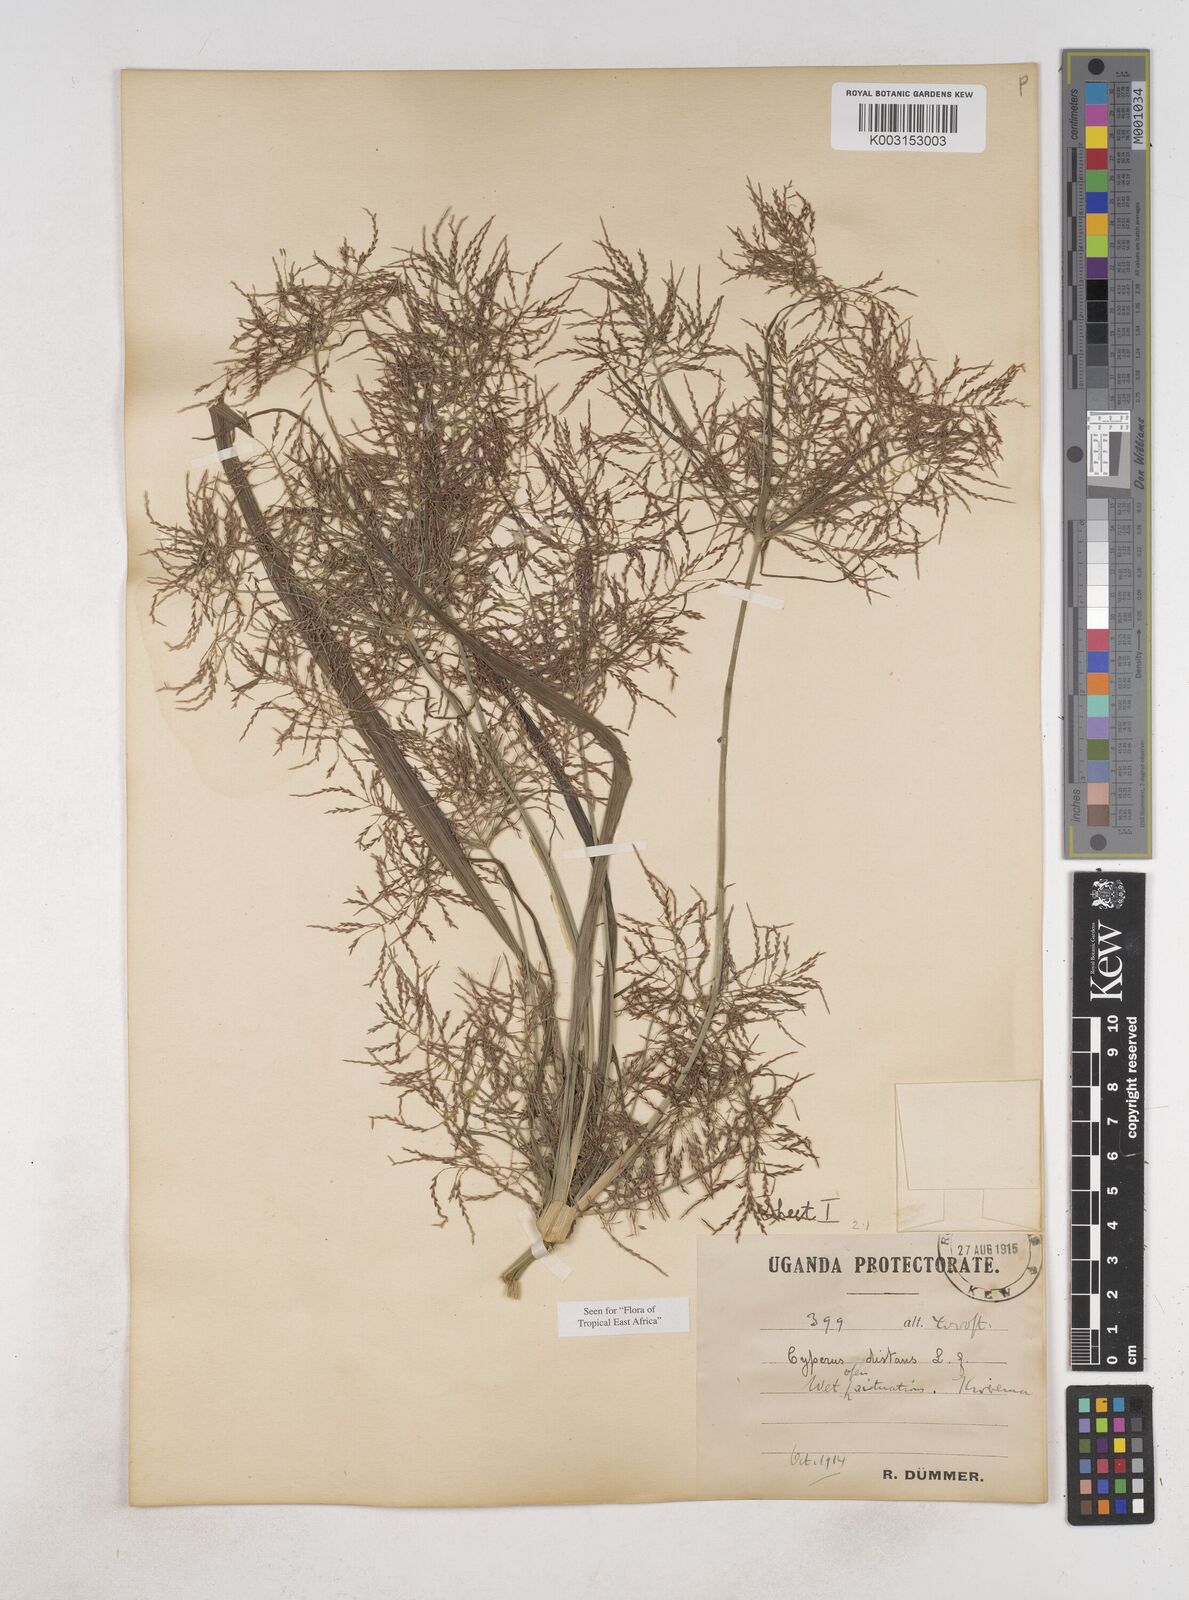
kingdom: Plantae
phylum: Tracheophyta
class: Liliopsida
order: Poales
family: Cyperaceae
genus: Cyperus
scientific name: Cyperus distans
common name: Slender cyperus
